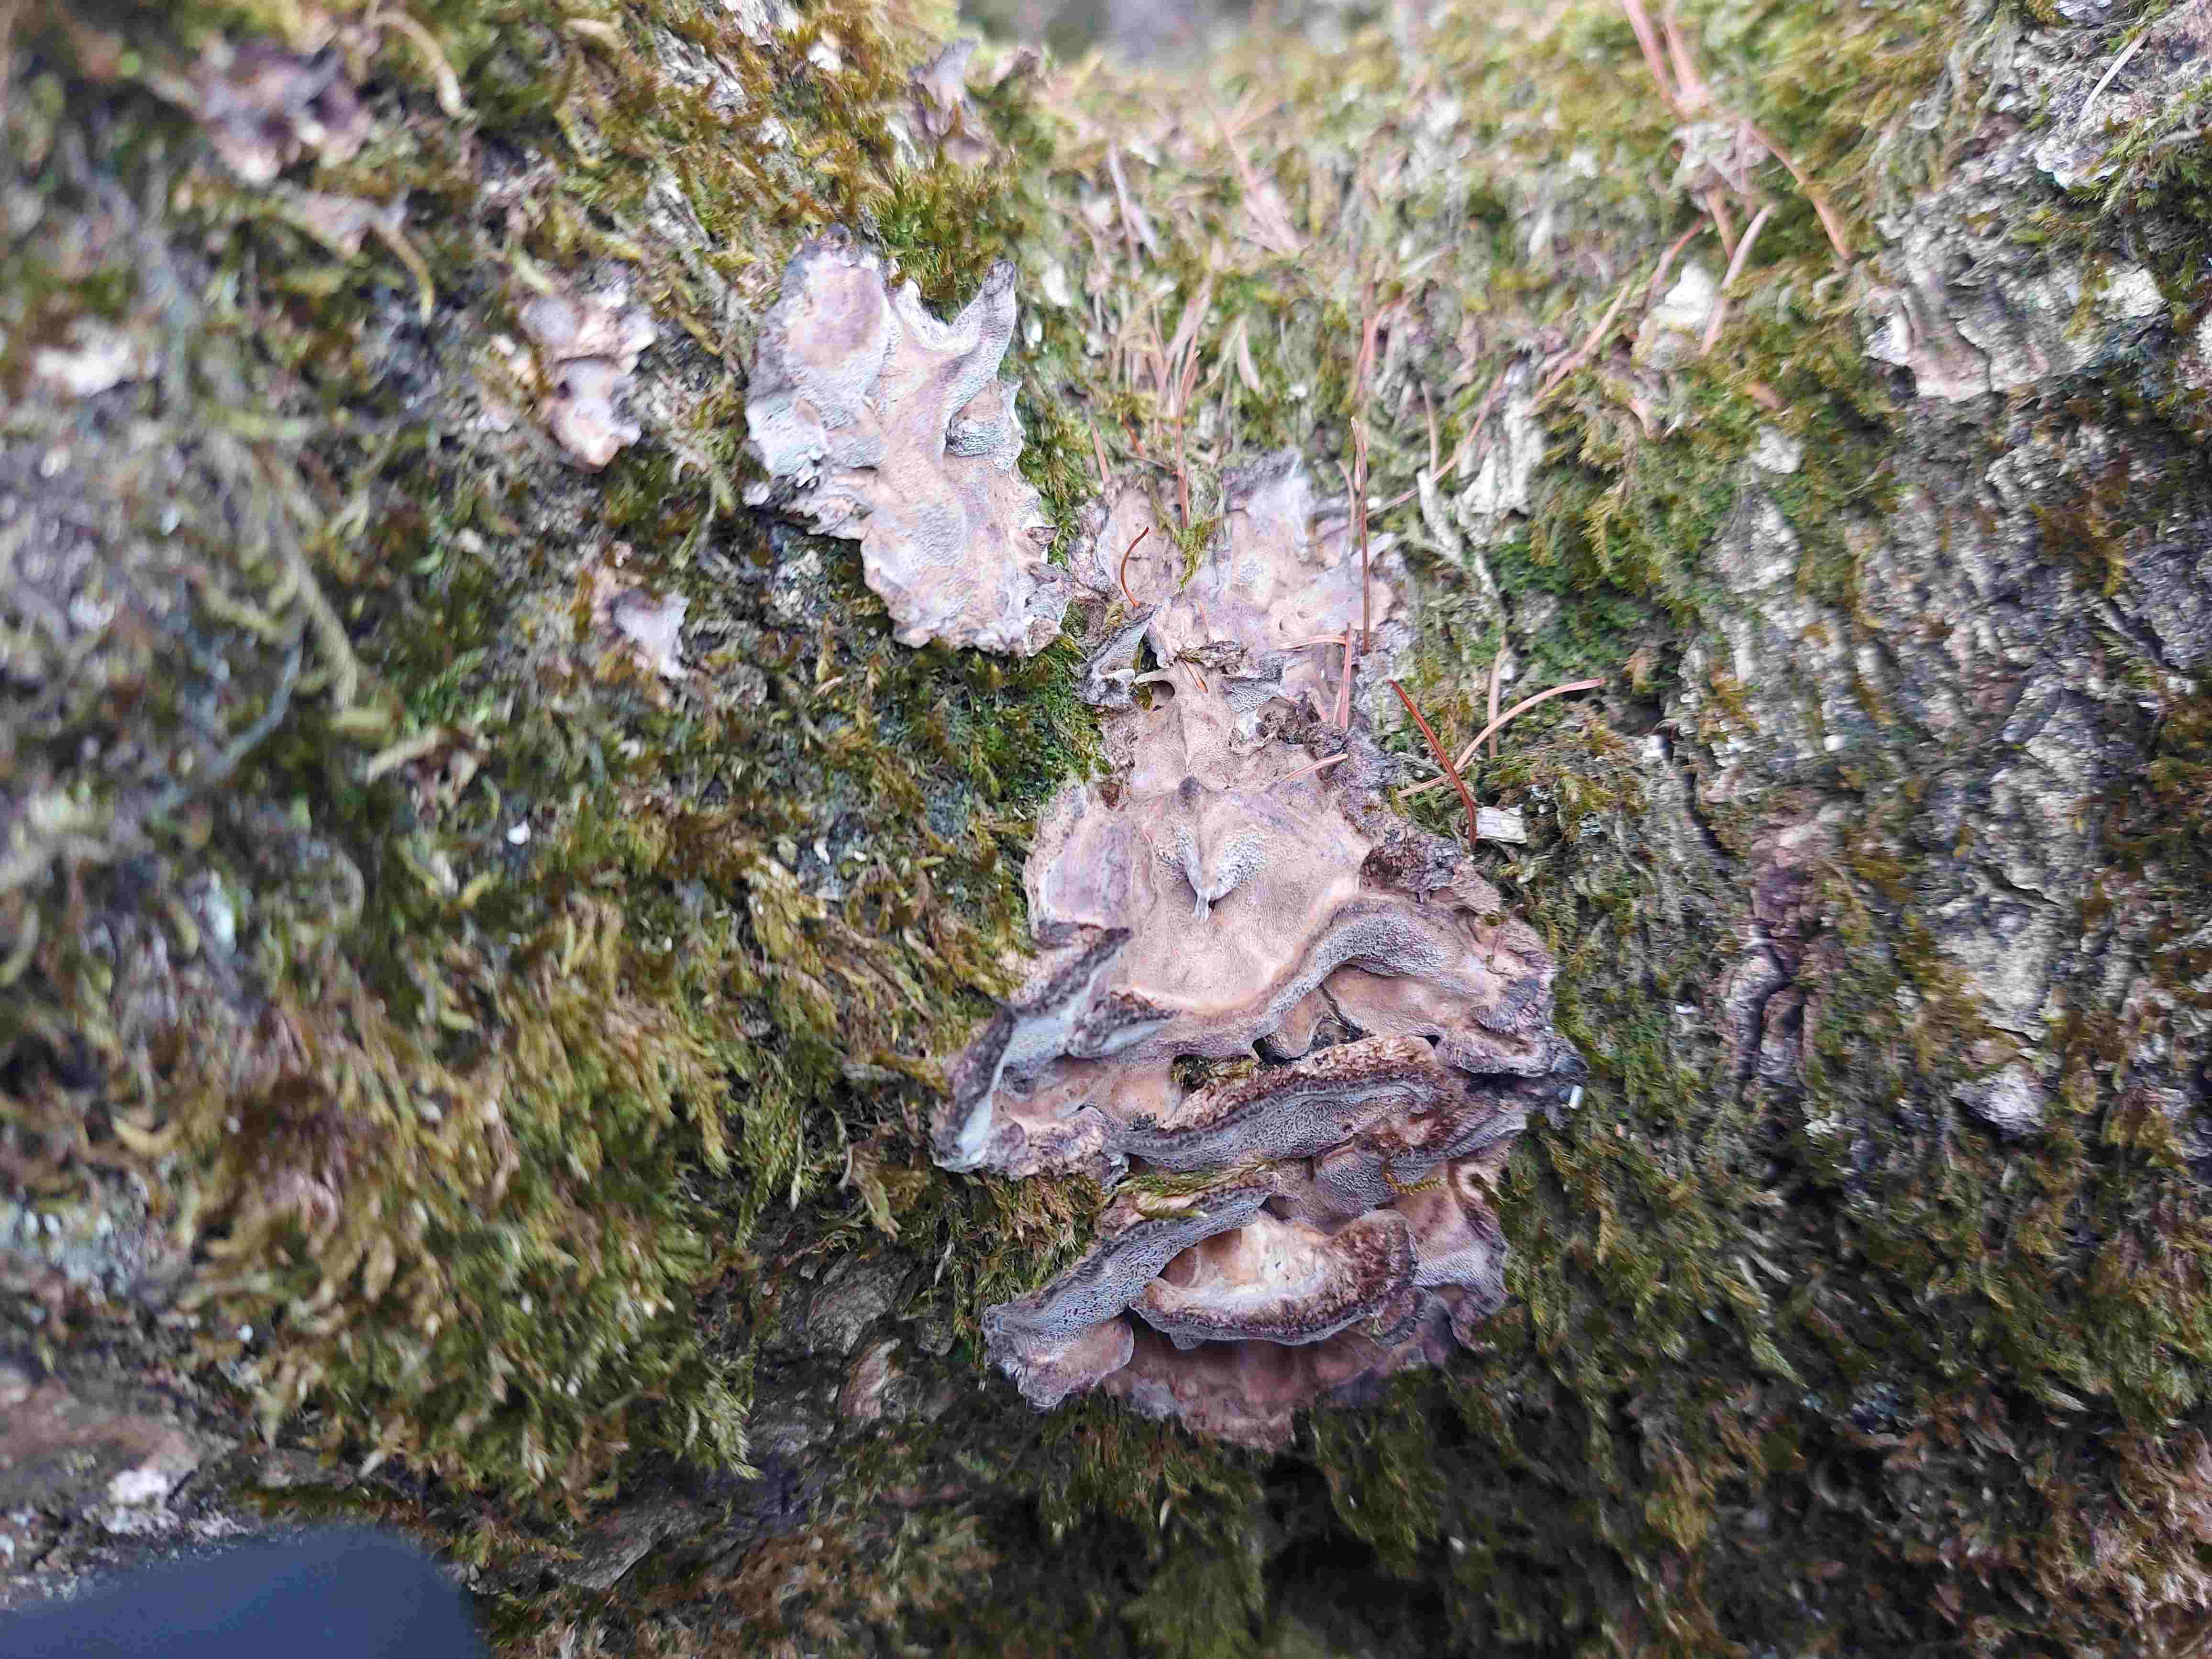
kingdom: Fungi
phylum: Basidiomycota
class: Agaricomycetes
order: Polyporales
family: Phanerochaetaceae
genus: Bjerkandera
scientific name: Bjerkandera adusta
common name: sveden sodporesvamp
